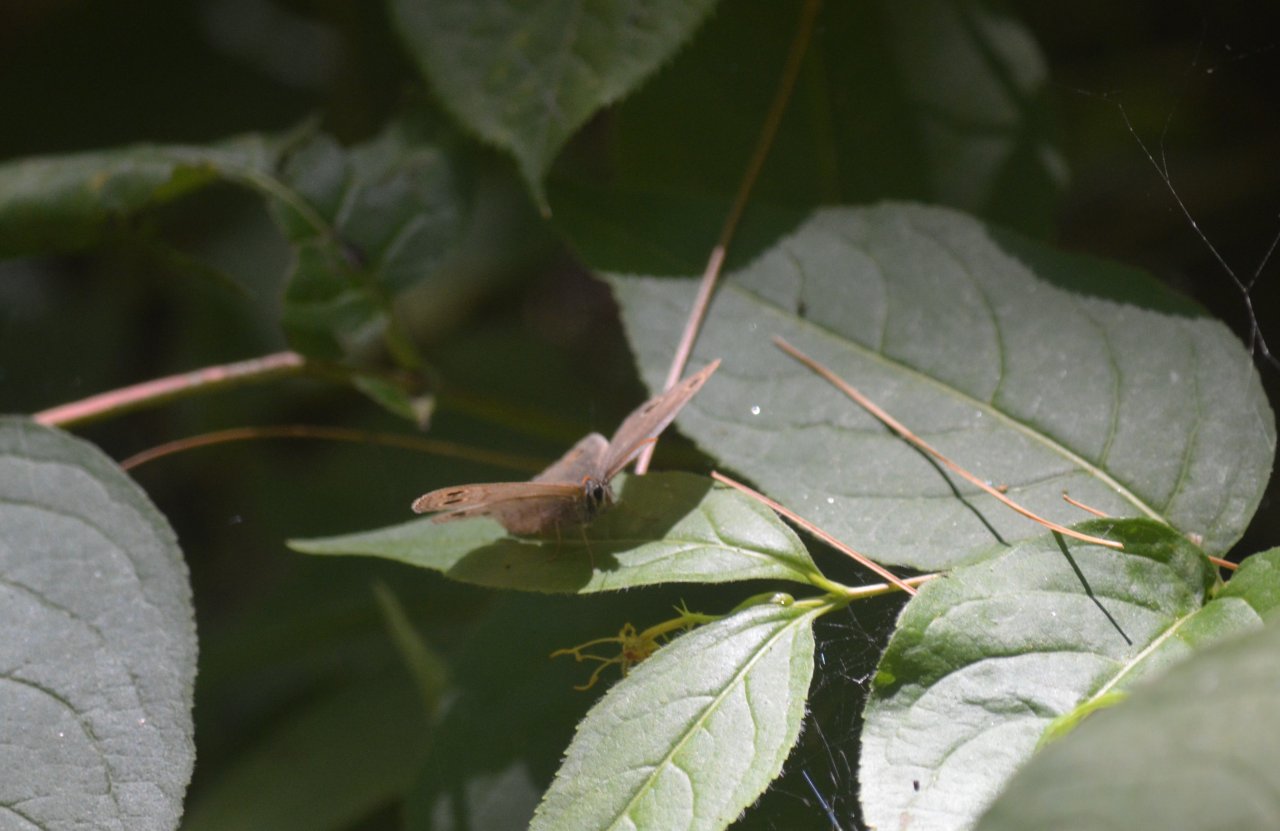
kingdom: Animalia
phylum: Arthropoda
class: Insecta
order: Lepidoptera
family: Nymphalidae
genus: Euptychia
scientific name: Euptychia cymela
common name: Little Wood Satyr
